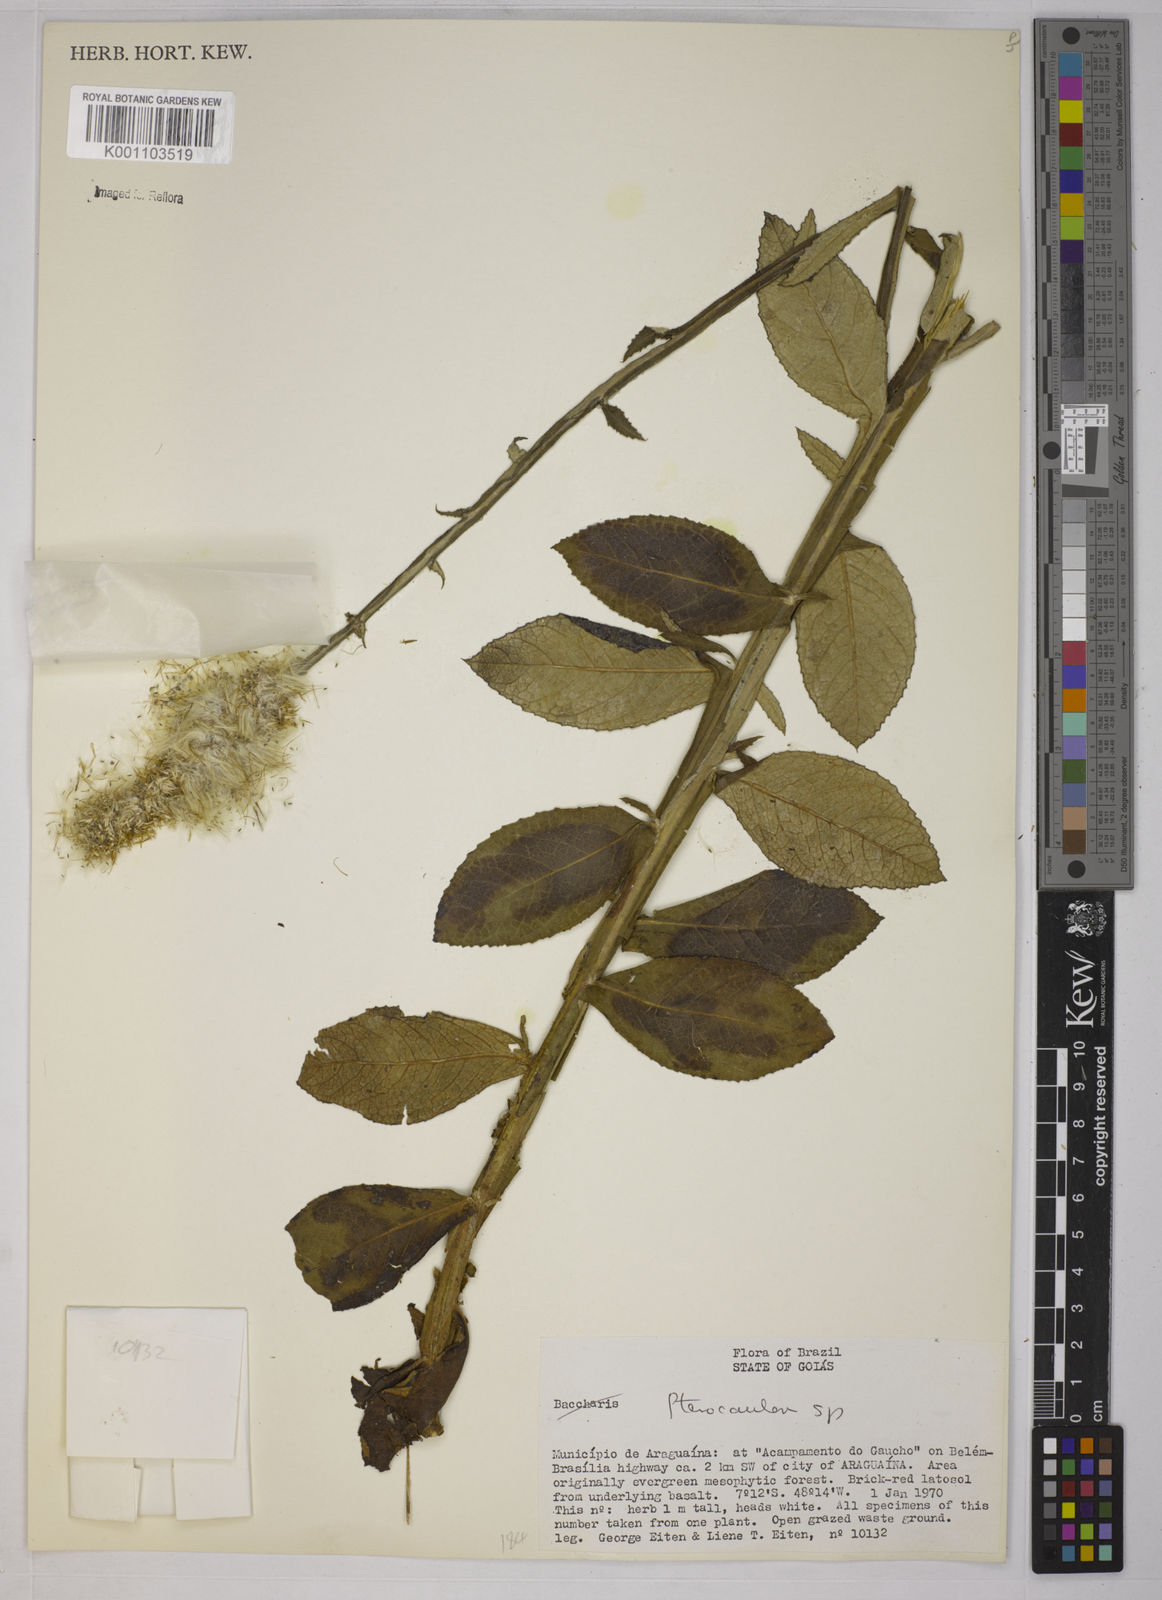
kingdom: Plantae
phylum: Tracheophyta
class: Magnoliopsida
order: Asterales
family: Asteraceae
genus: Pterocaulon
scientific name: Pterocaulon
